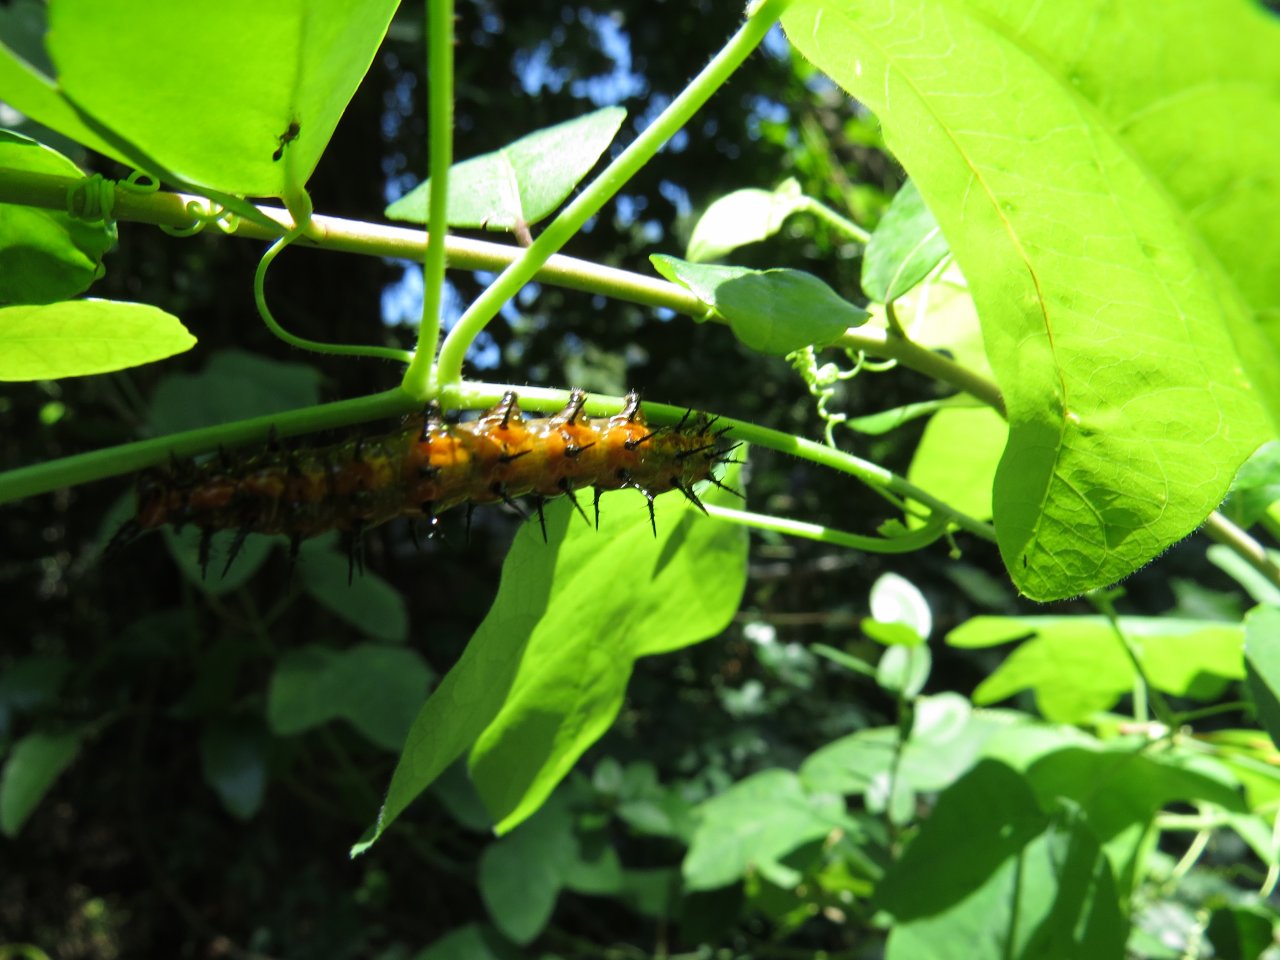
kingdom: Animalia
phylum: Arthropoda
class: Insecta
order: Lepidoptera
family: Nymphalidae
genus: Dione
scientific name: Dione vanillae
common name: Gulf Fritillary
